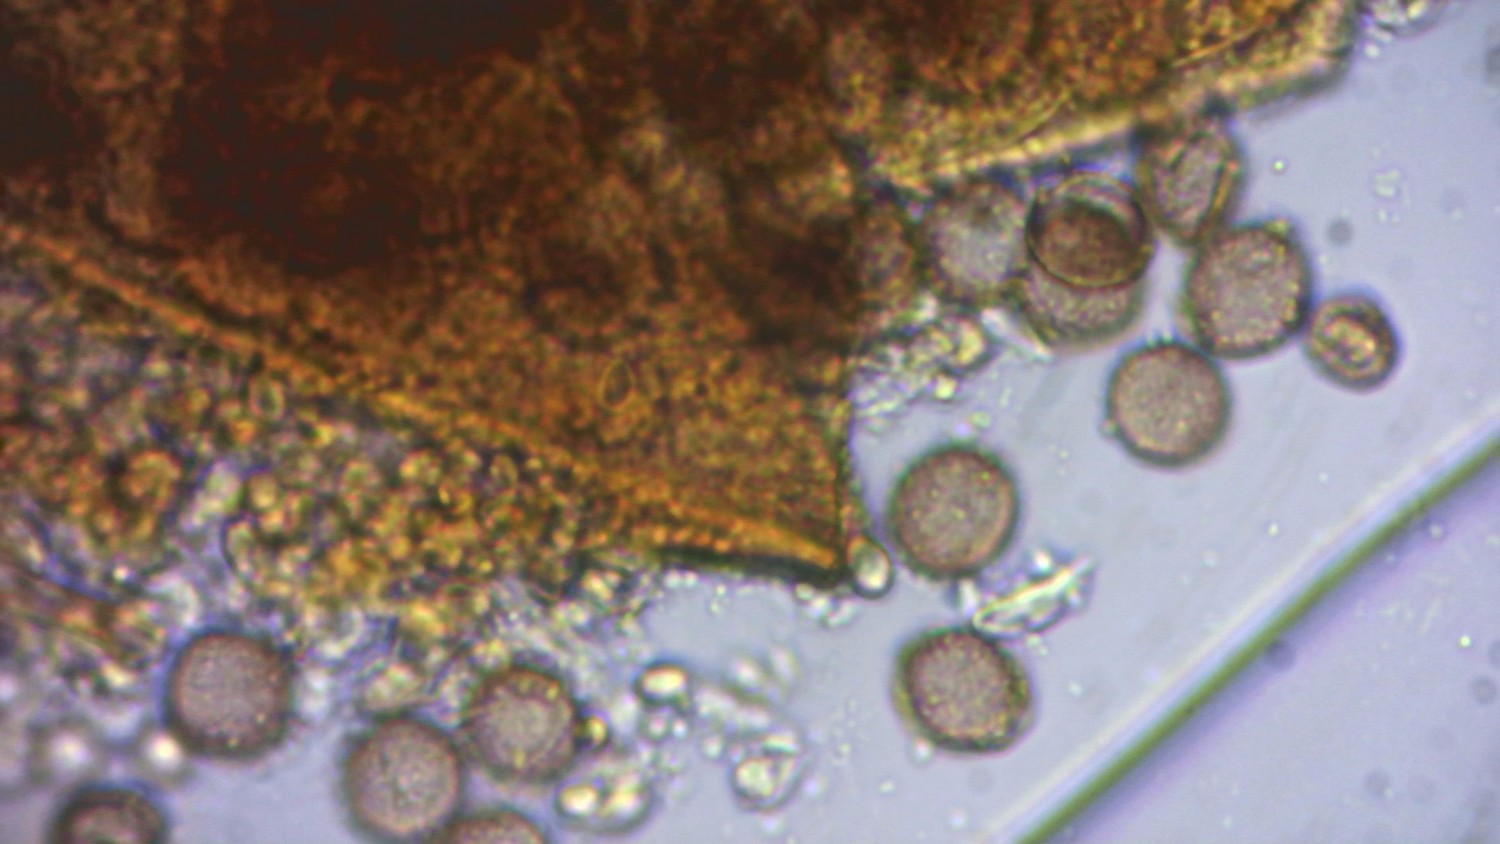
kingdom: Protozoa
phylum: Mycetozoa
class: Myxomycetes
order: Cribrariales
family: Liceaceae
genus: Licea
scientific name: Licea pygmaea
